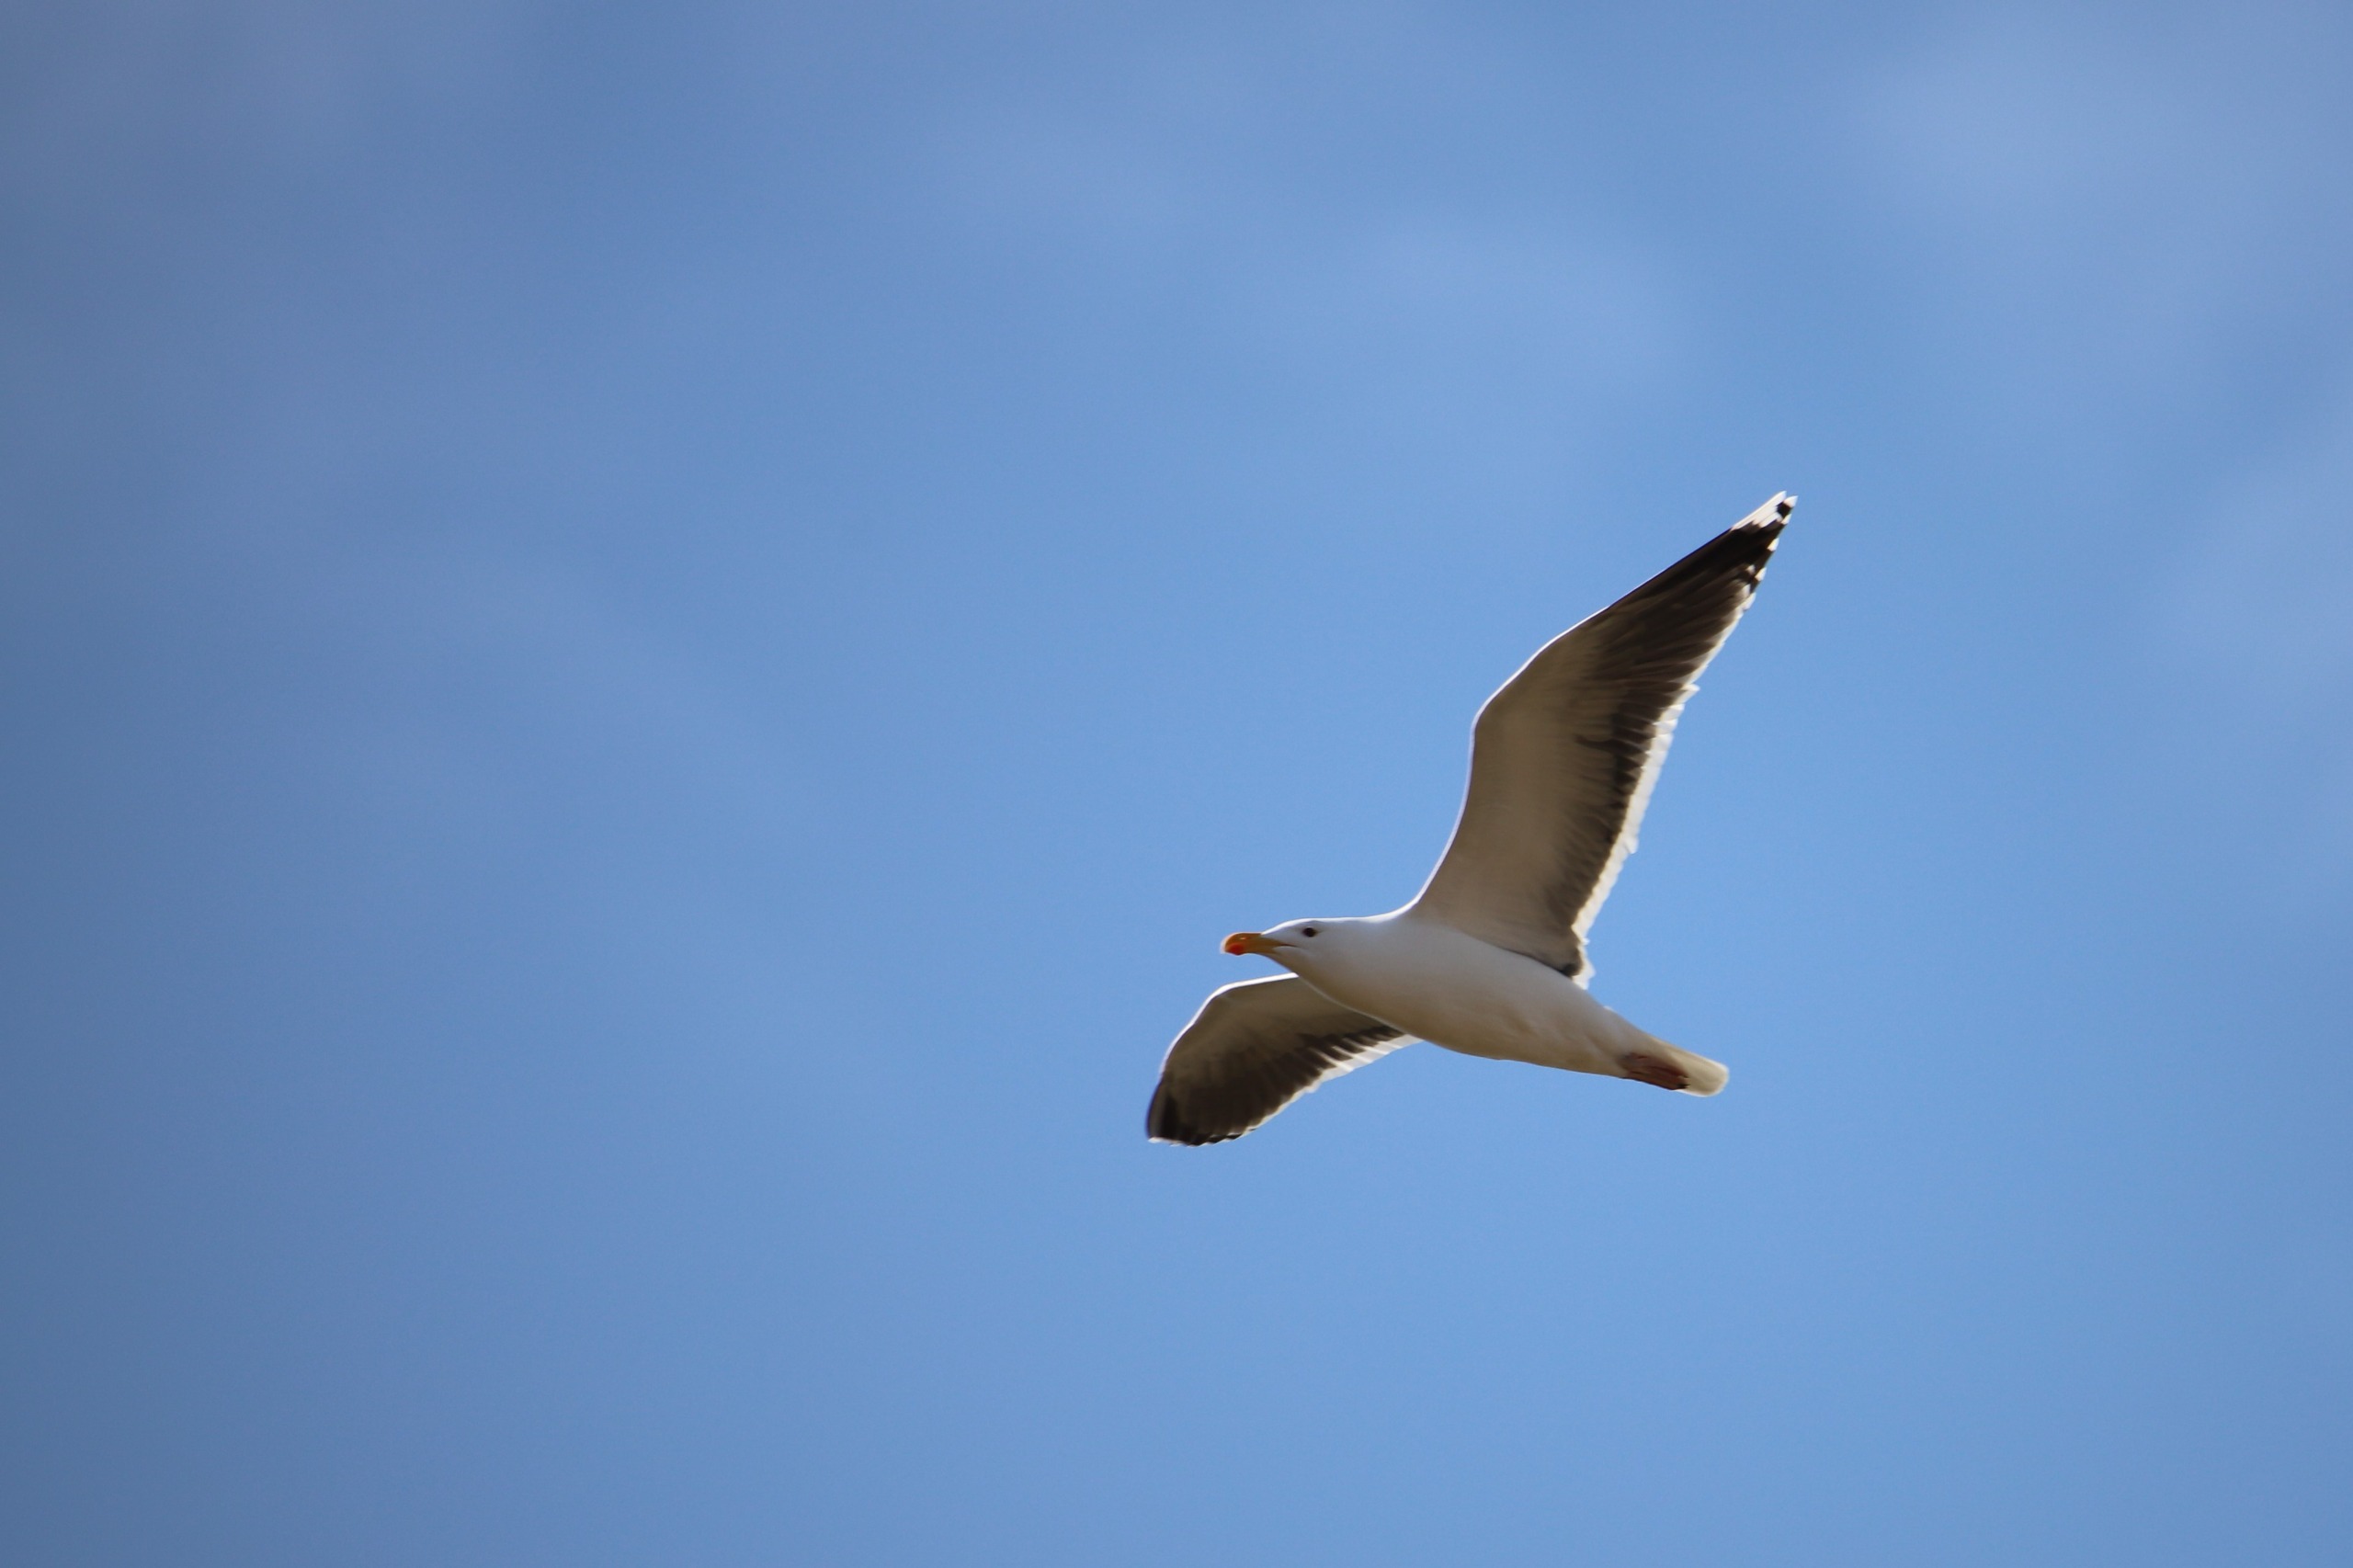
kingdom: Animalia
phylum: Chordata
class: Aves
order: Charadriiformes
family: Laridae
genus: Larus
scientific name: Larus marinus
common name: Svartbag
